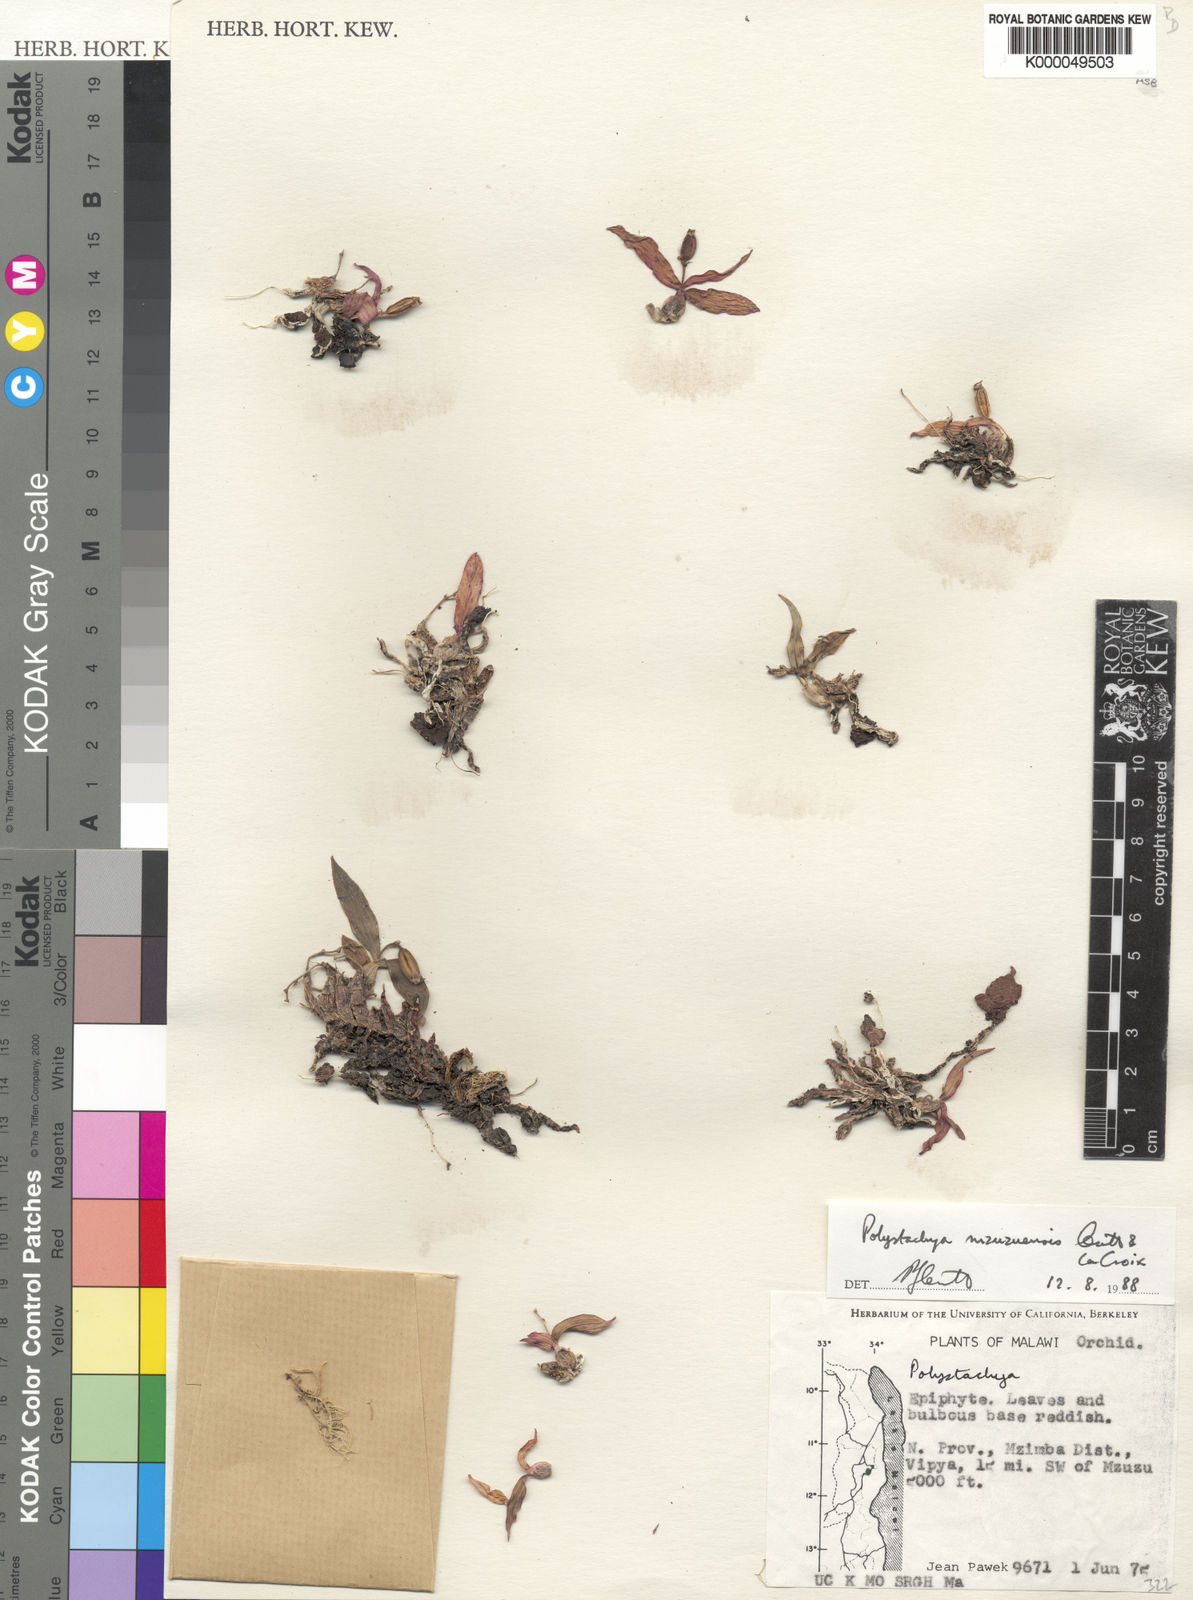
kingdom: Plantae
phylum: Tracheophyta
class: Liliopsida
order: Asparagales
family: Orchidaceae
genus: Polystachya
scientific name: Polystachya mzuzuensis
